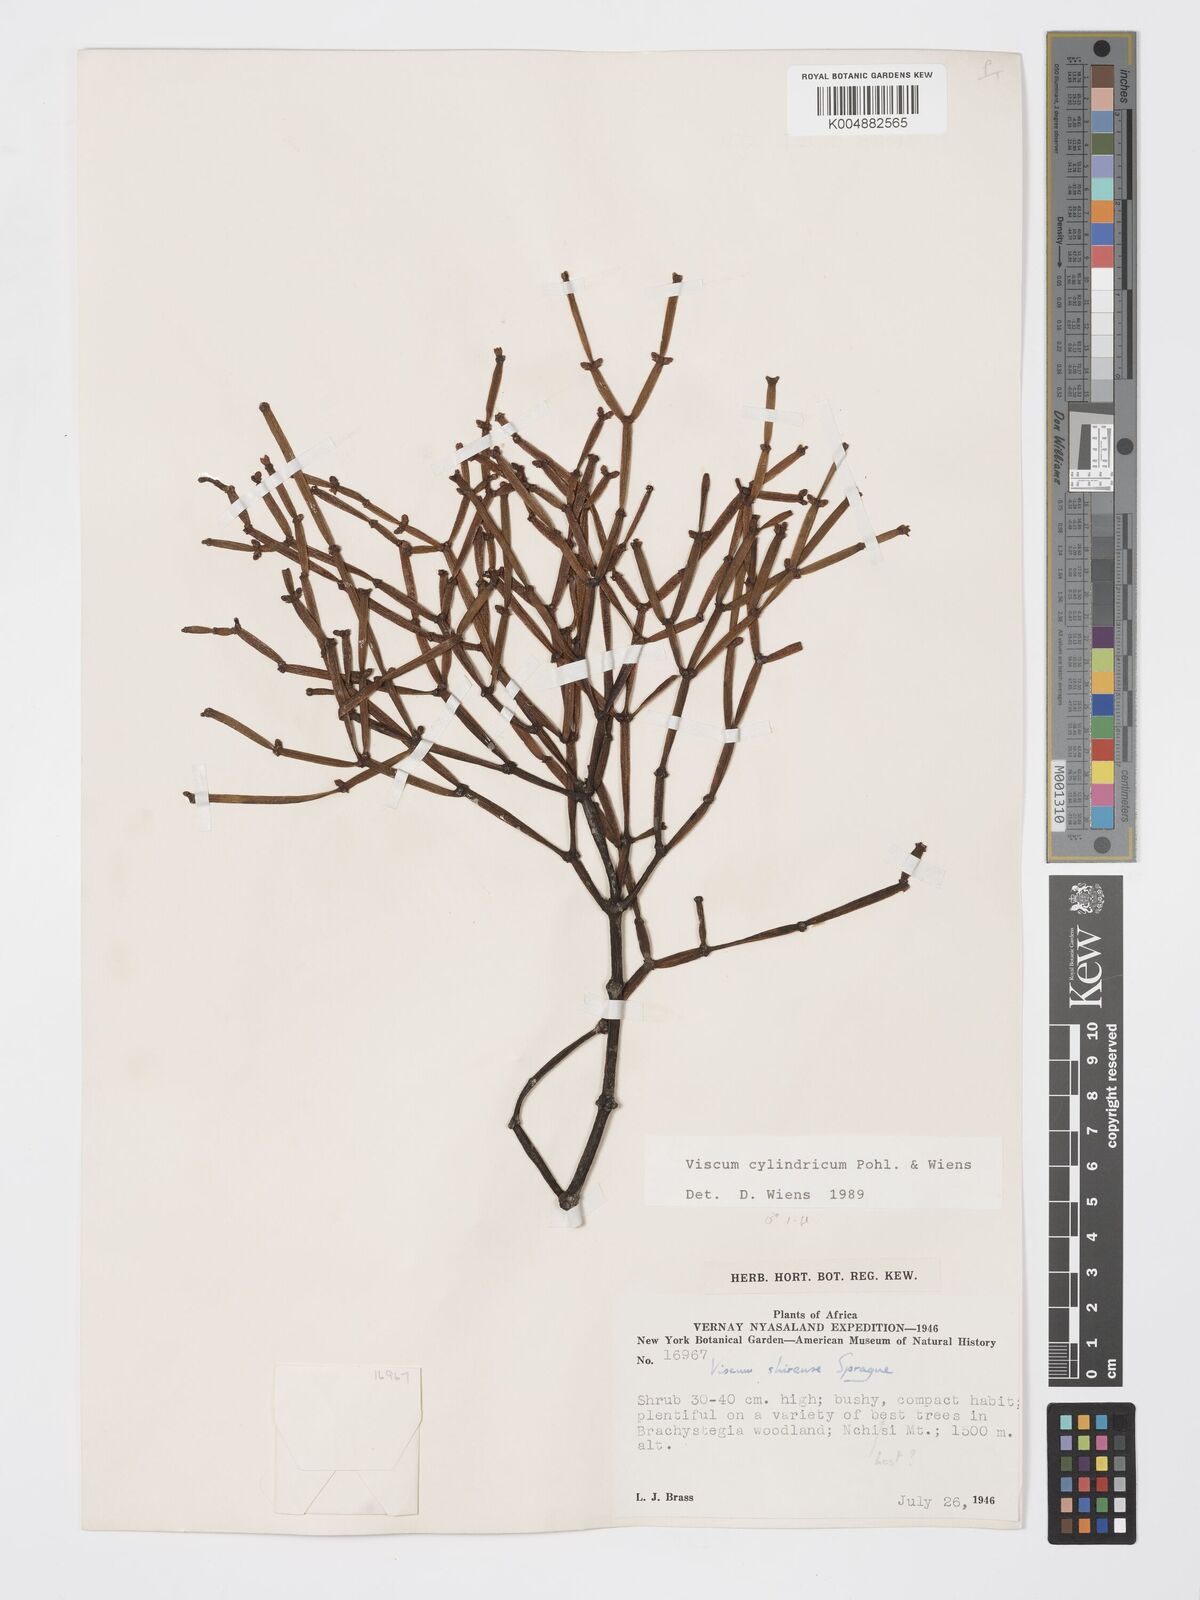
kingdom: Plantae
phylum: Tracheophyta
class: Magnoliopsida
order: Santalales
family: Viscaceae
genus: Viscum
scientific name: Viscum cylindricum
